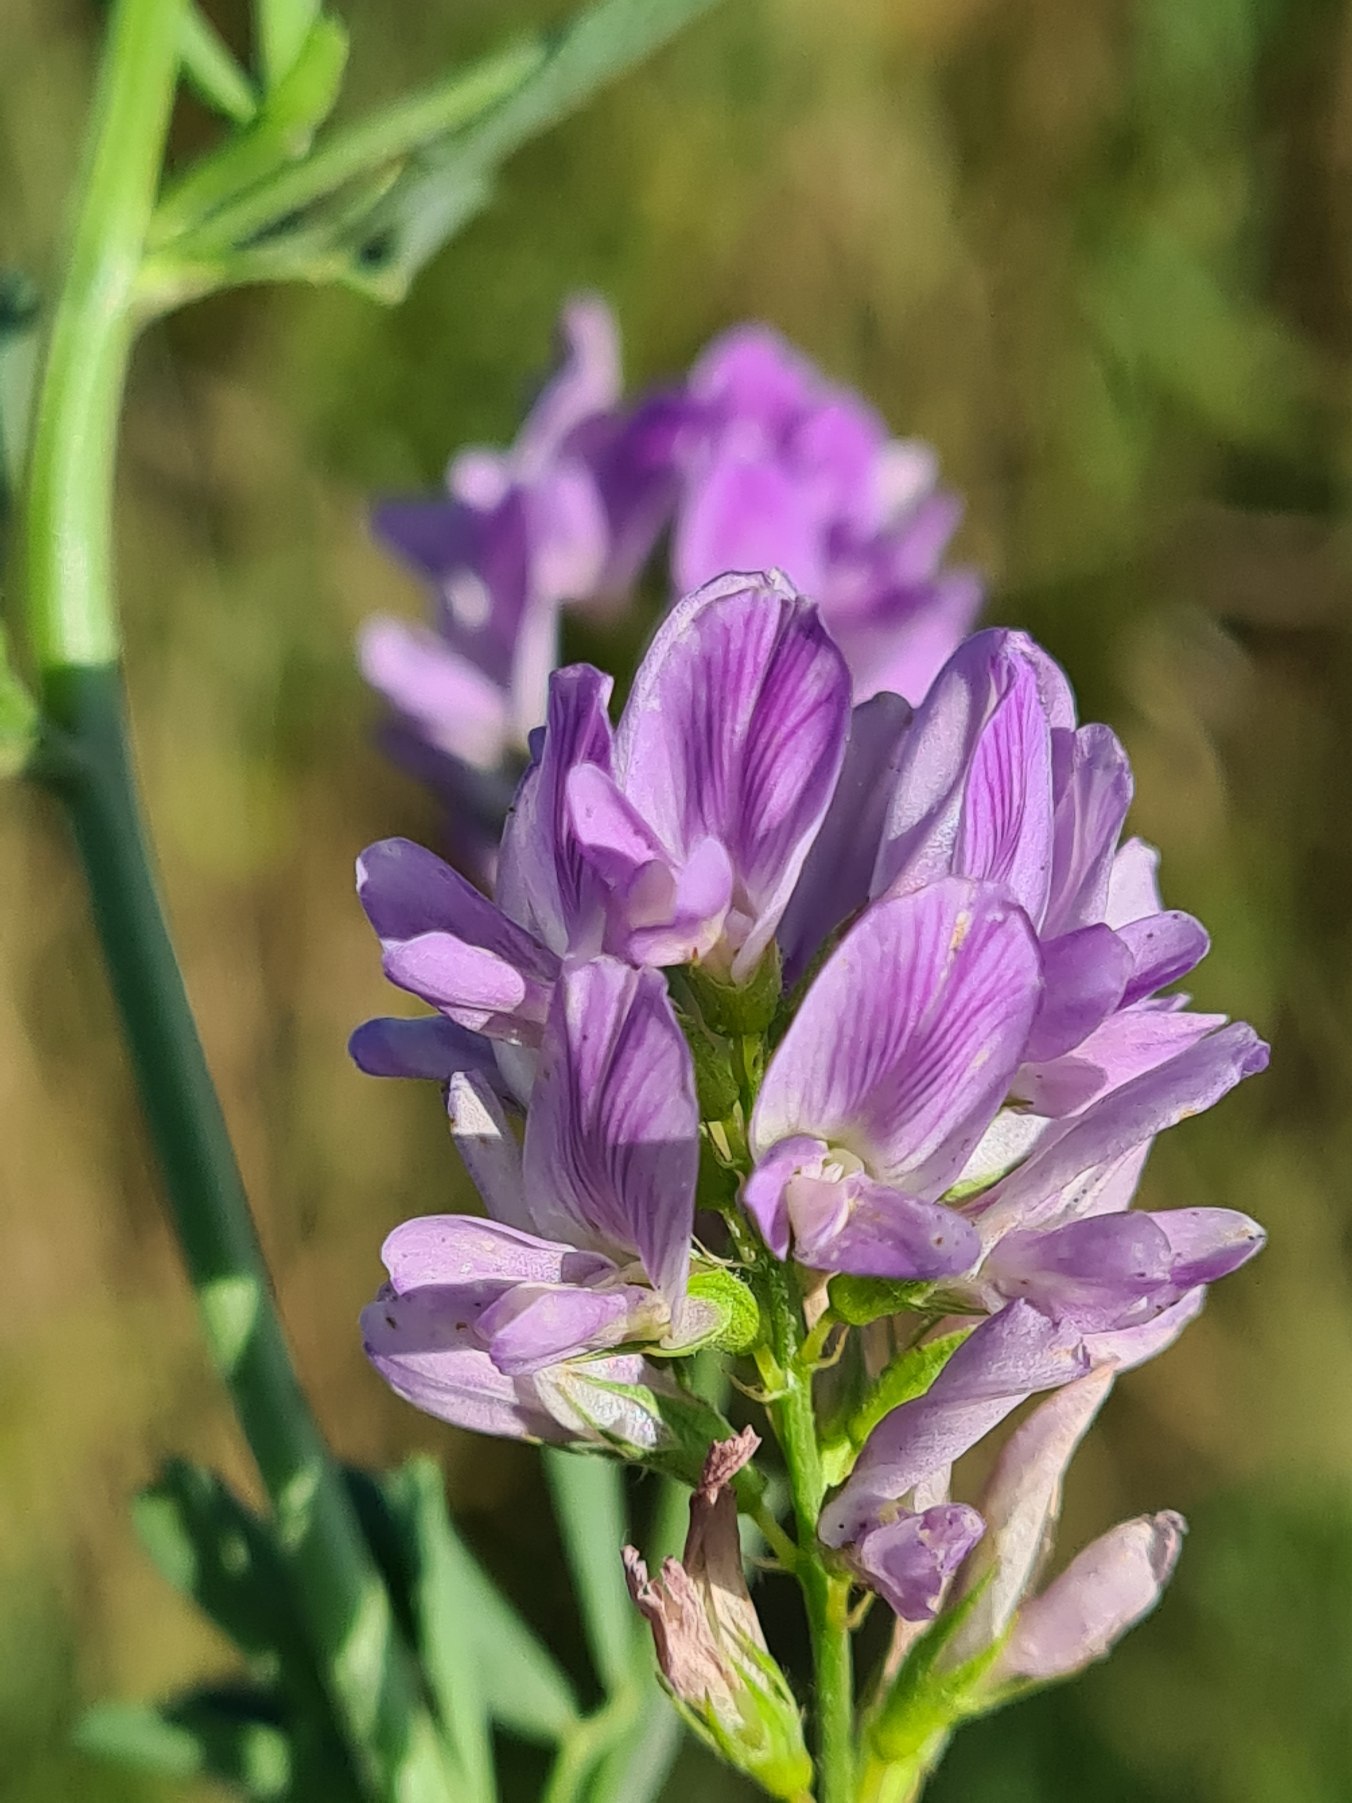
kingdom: Plantae
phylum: Tracheophyta
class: Magnoliopsida
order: Fabales
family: Fabaceae
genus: Medicago
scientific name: Medicago sativa
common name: Lucerne
